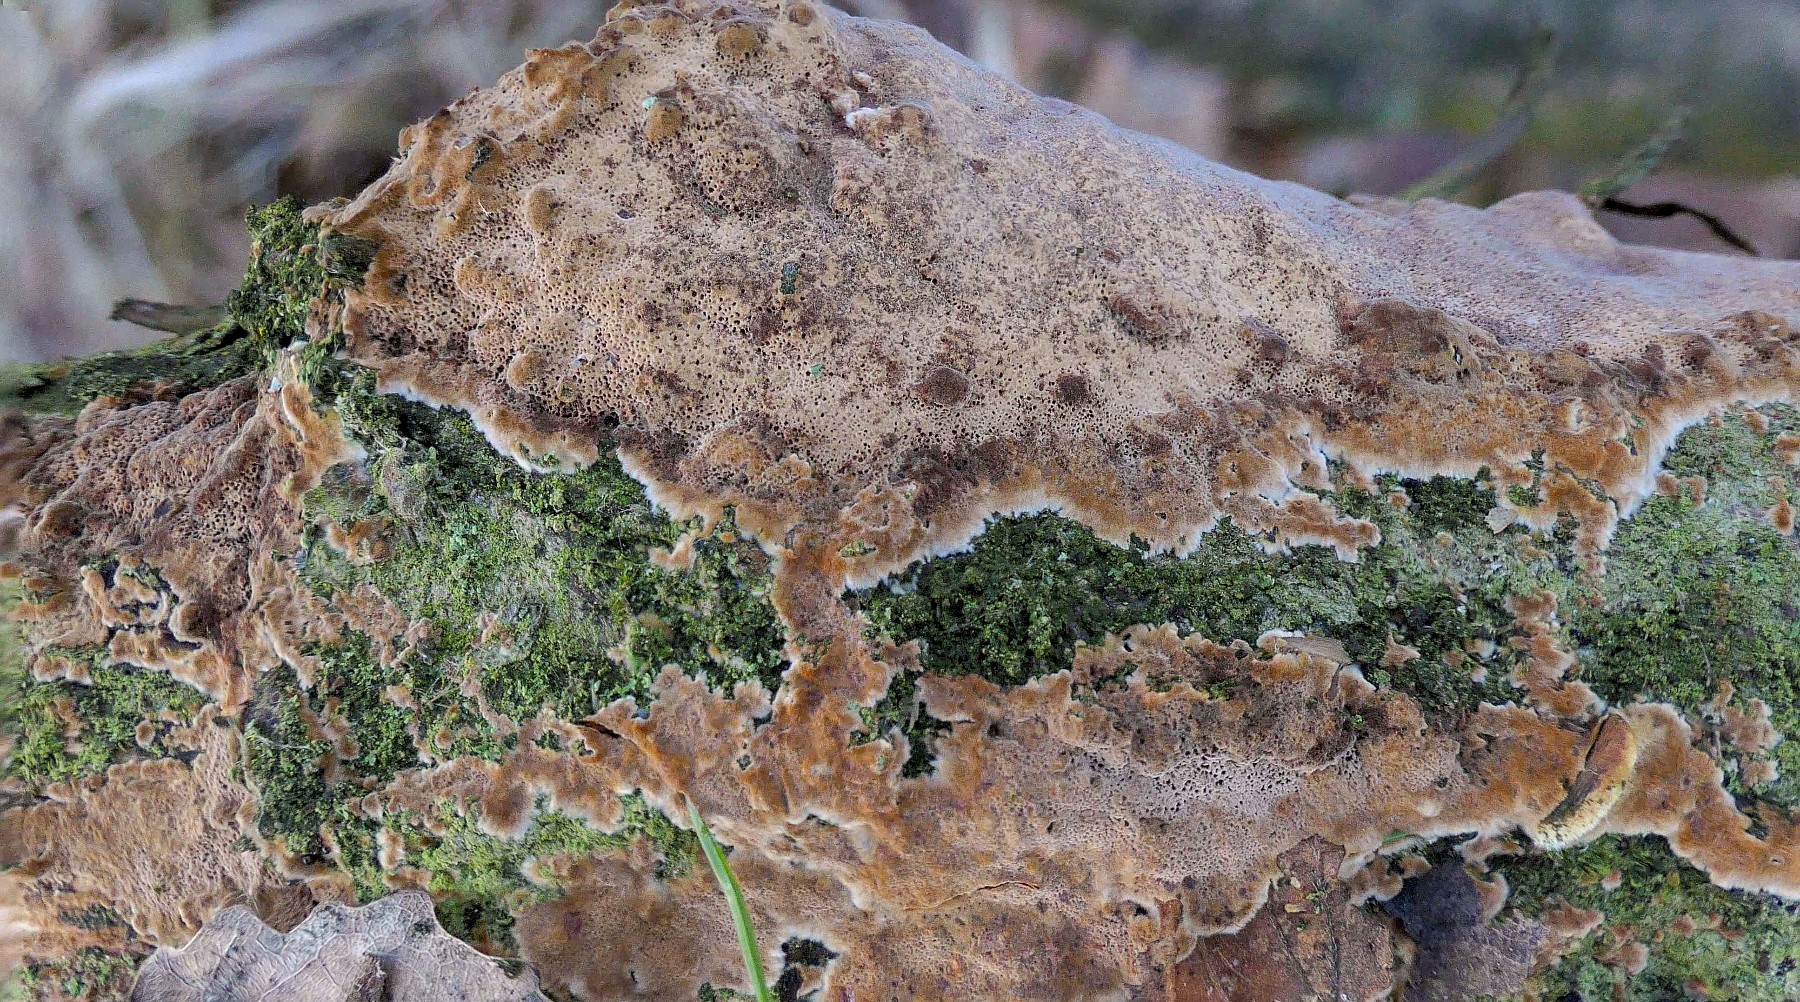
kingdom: Fungi
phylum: Basidiomycota
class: Agaricomycetes
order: Hymenochaetales
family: Hymenochaetaceae
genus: Fuscoporia
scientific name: Fuscoporia ferrea
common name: skorpe-ildporesvamp
